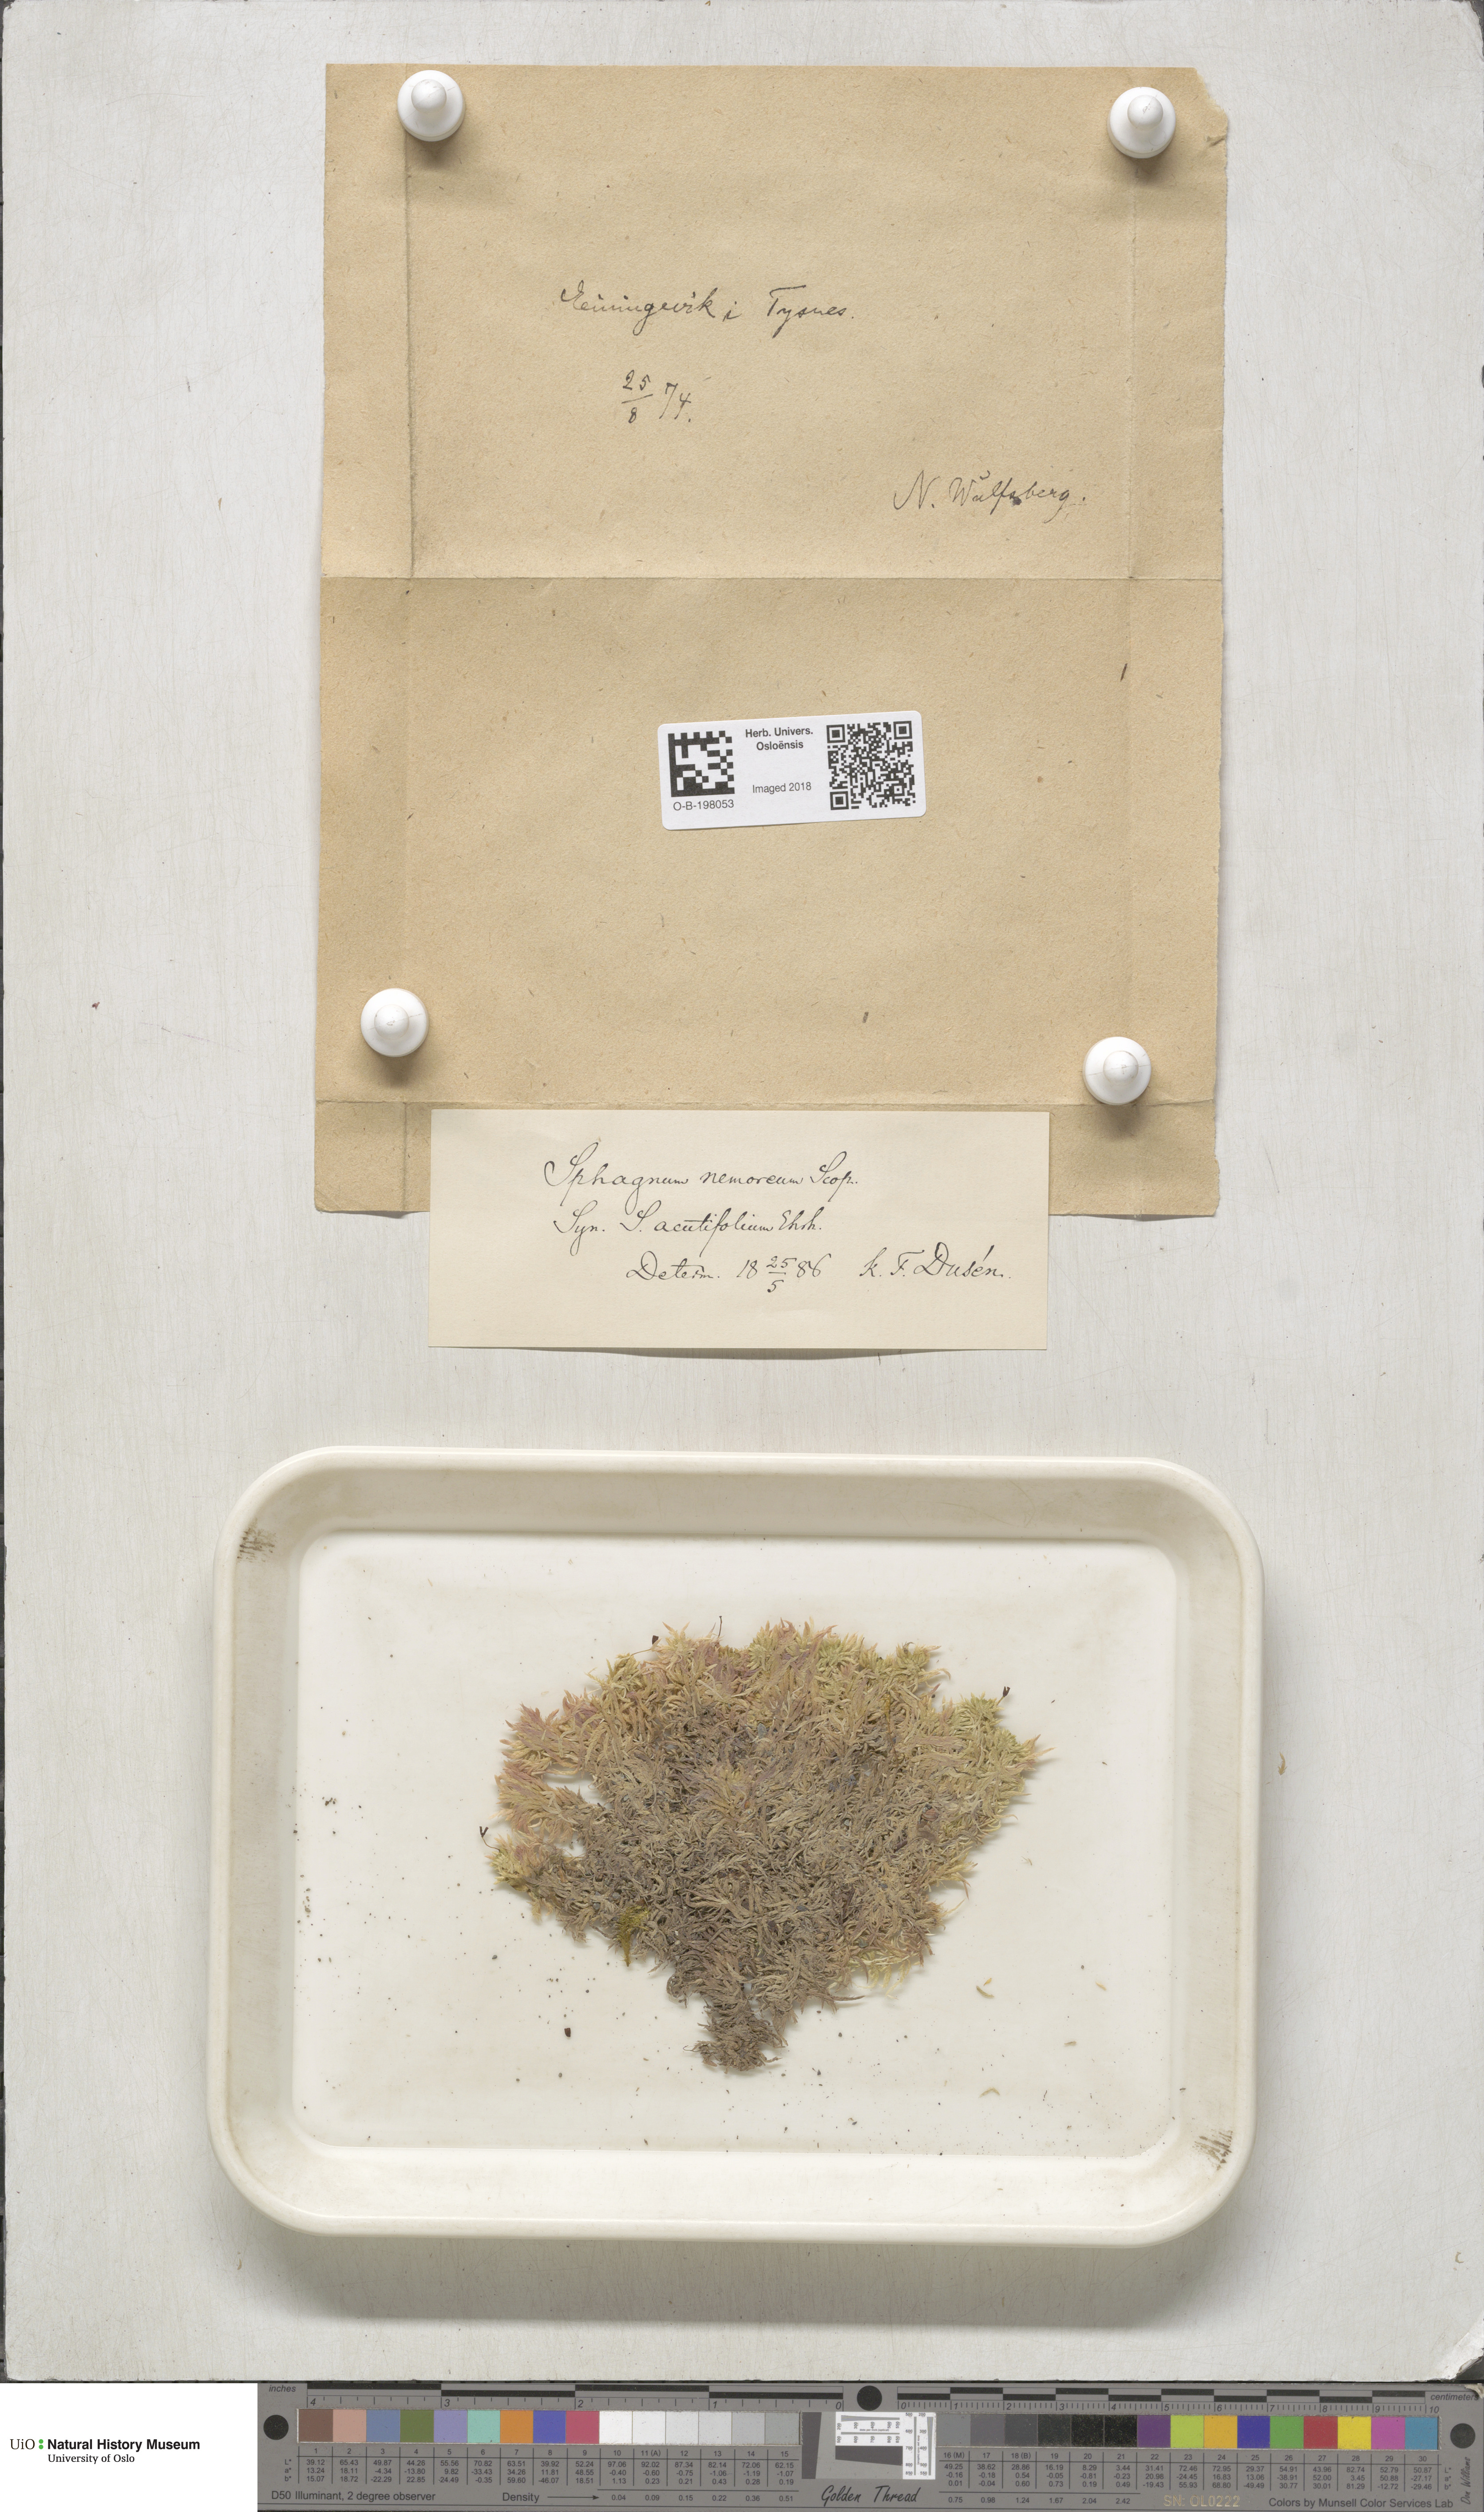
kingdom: Plantae
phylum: Bryophyta
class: Sphagnopsida
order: Sphagnales
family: Sphagnaceae
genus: Sphagnum
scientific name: Sphagnum capillifolium
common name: Small red peat moss
